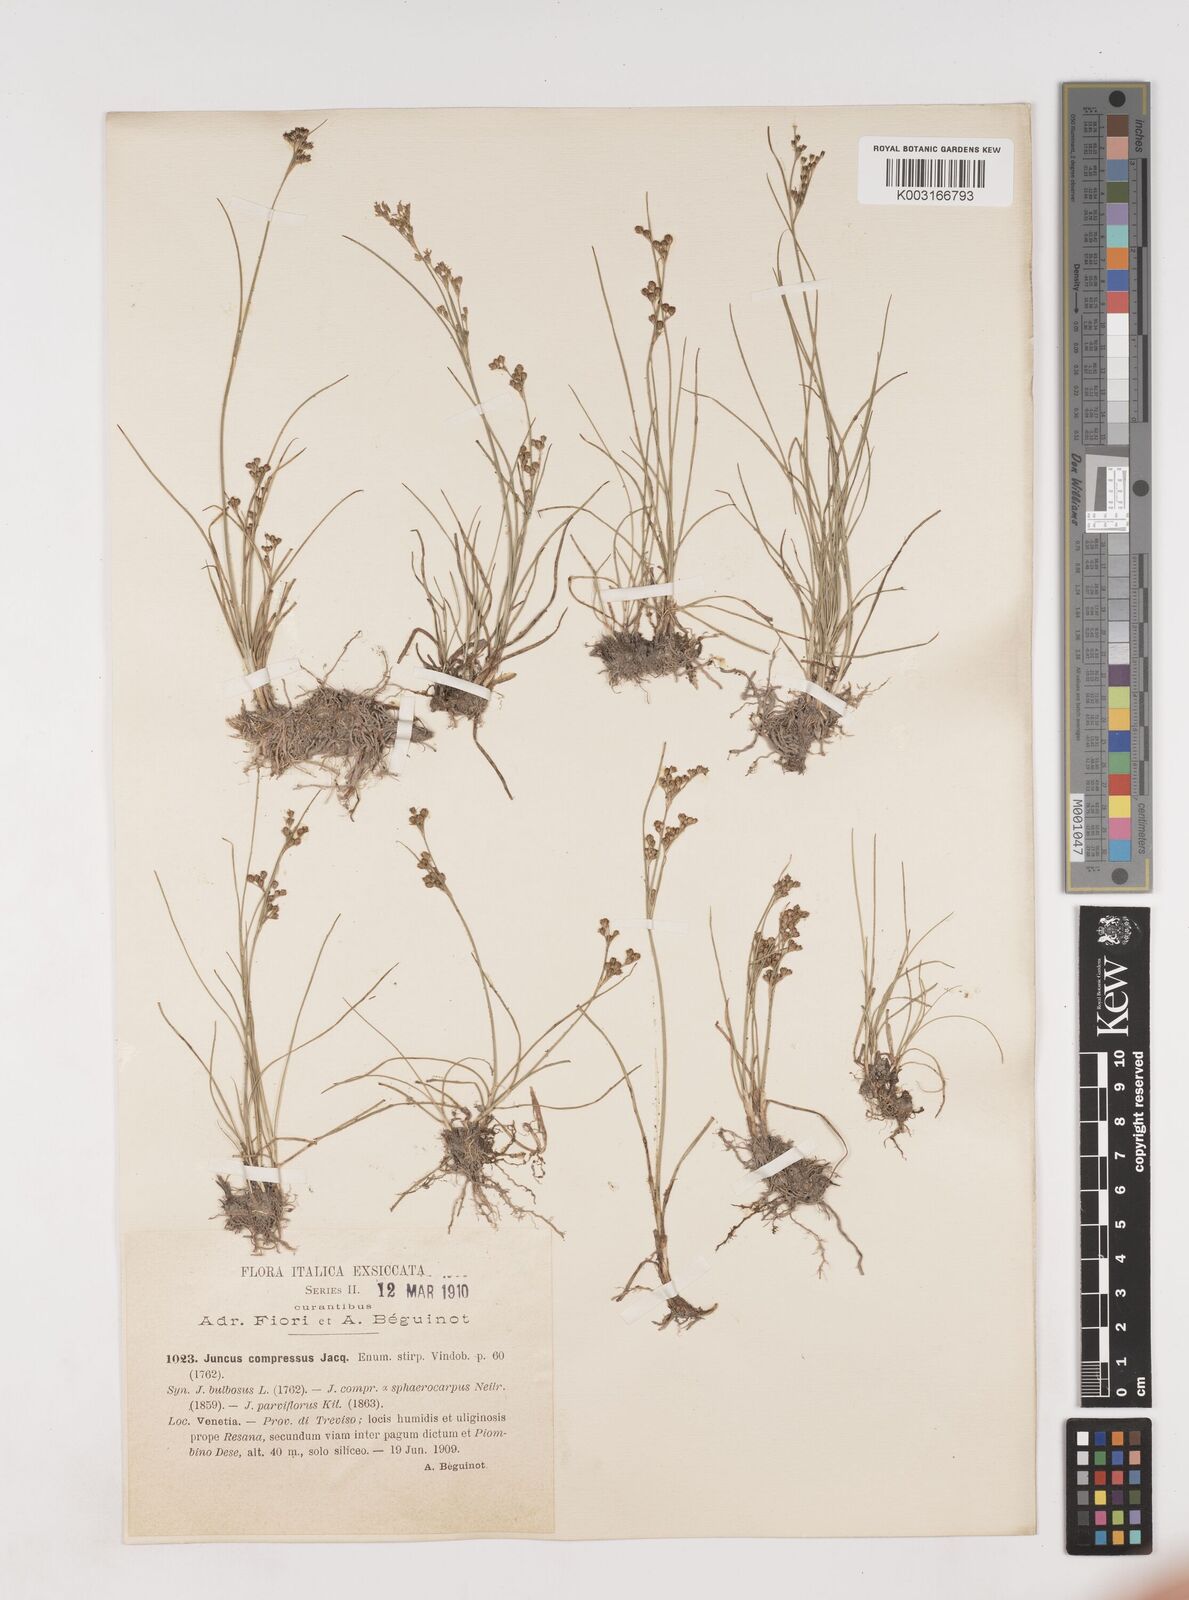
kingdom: Plantae
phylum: Tracheophyta
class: Liliopsida
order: Poales
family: Juncaceae
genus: Juncus
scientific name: Juncus compressus
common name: Round-fruited rush
